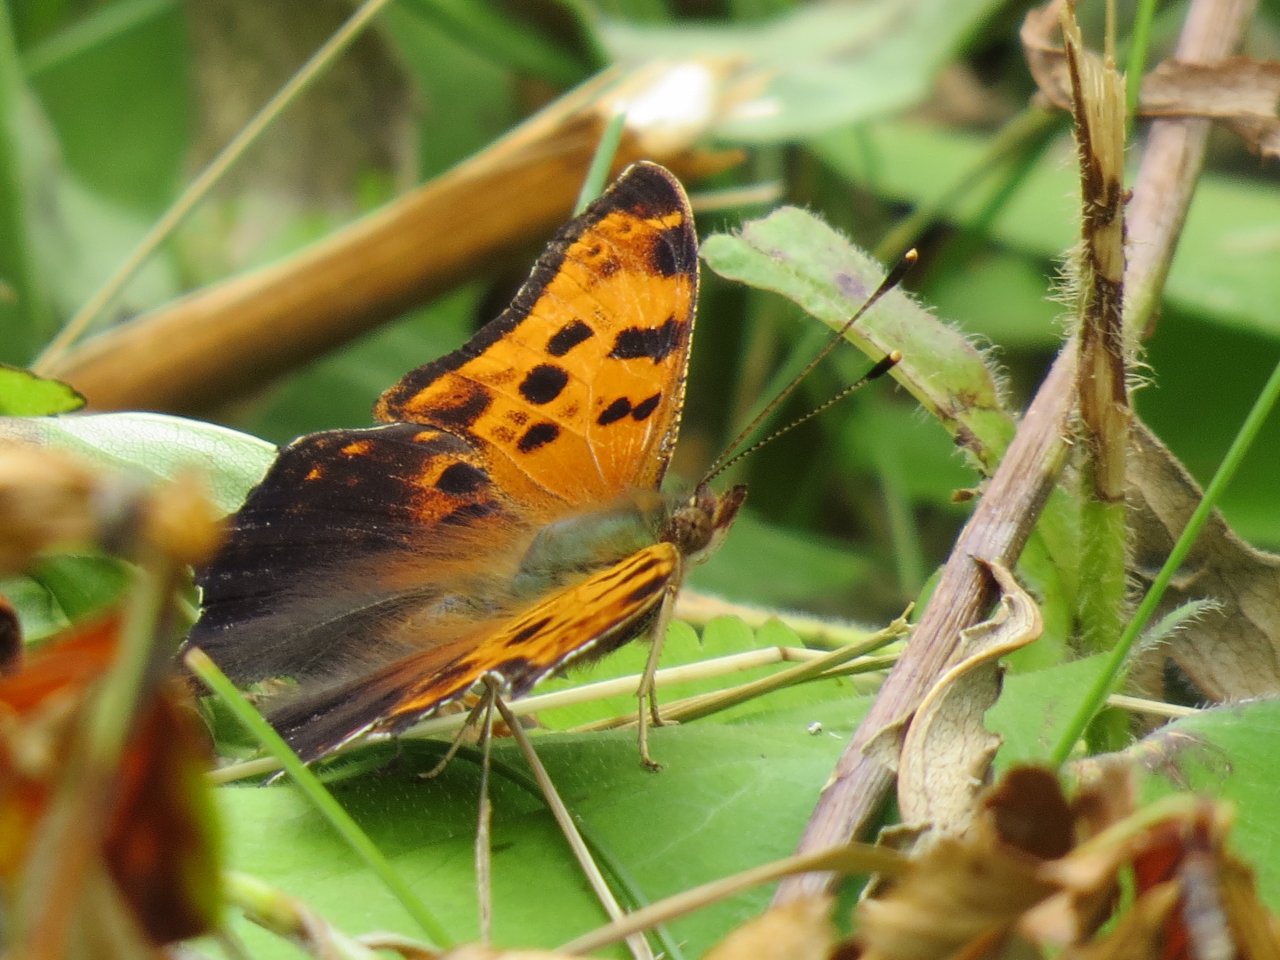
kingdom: Animalia
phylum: Arthropoda
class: Insecta
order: Lepidoptera
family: Nymphalidae
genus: Polygonia
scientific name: Polygonia comma
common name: Eastern Comma
